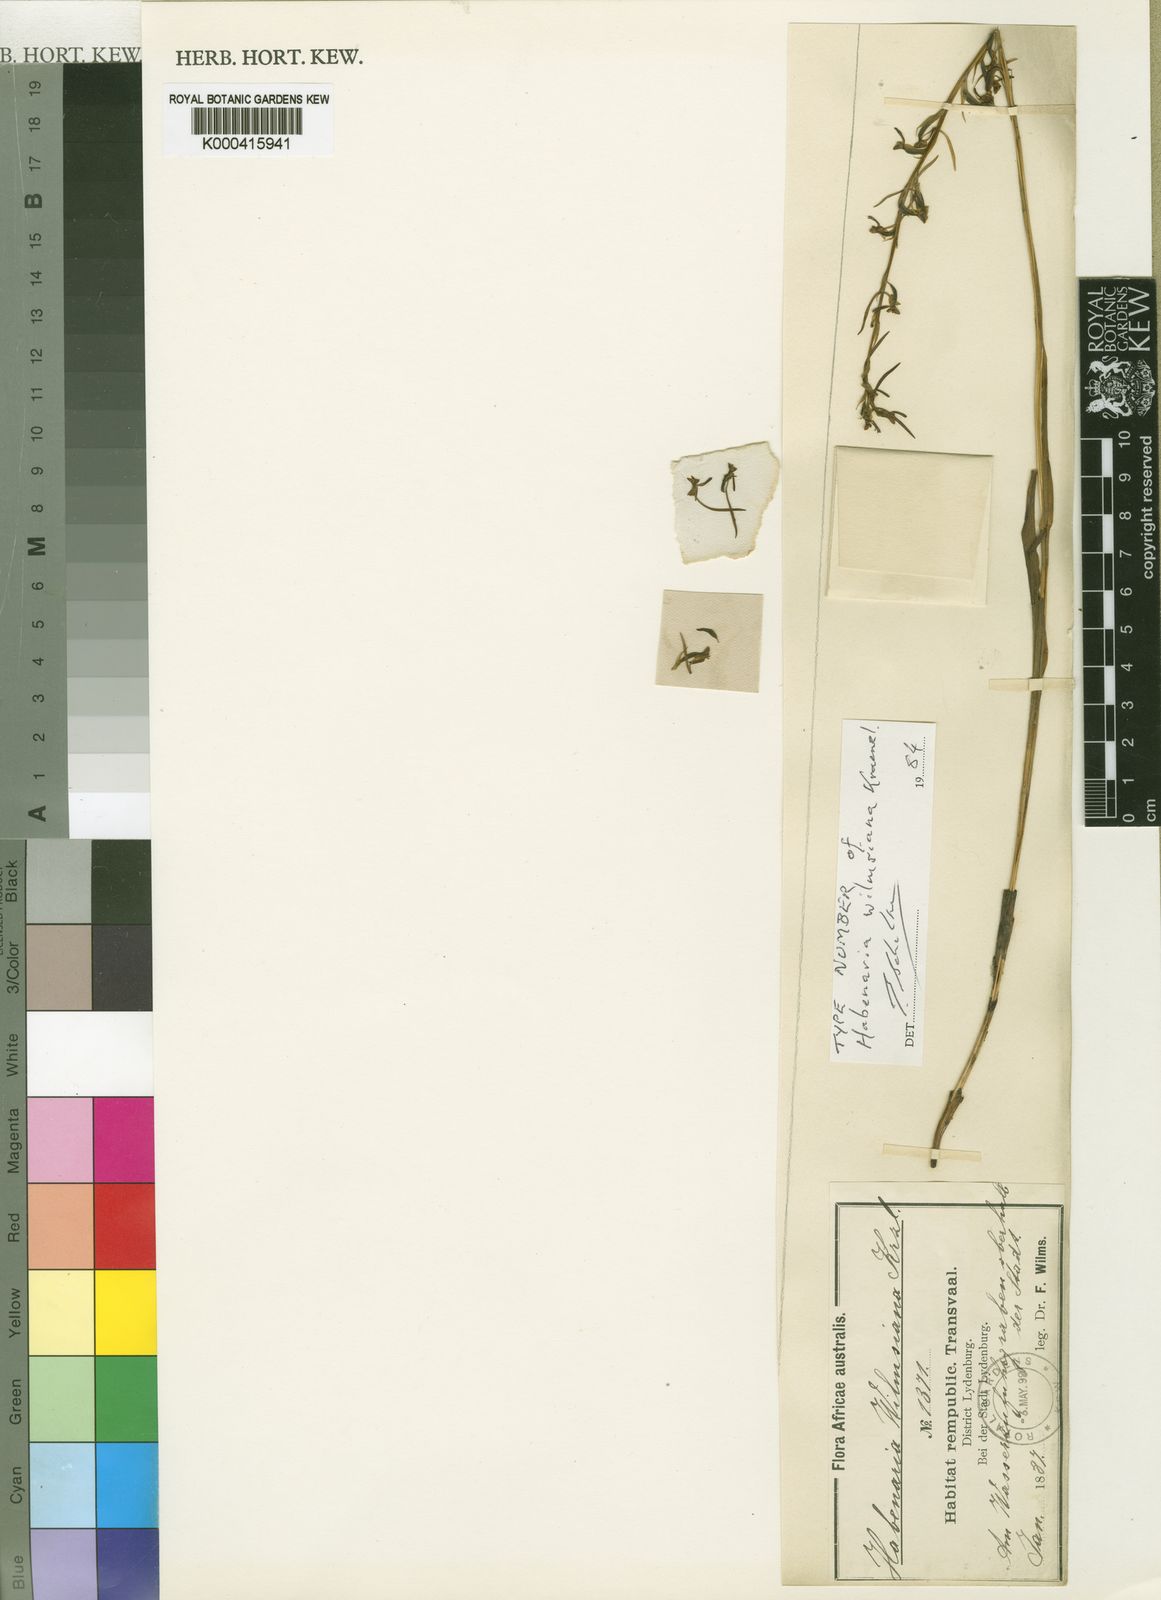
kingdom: Plantae
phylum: Tracheophyta
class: Liliopsida
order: Asparagales
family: Orchidaceae
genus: Habenaria
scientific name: Habenaria filicornis
